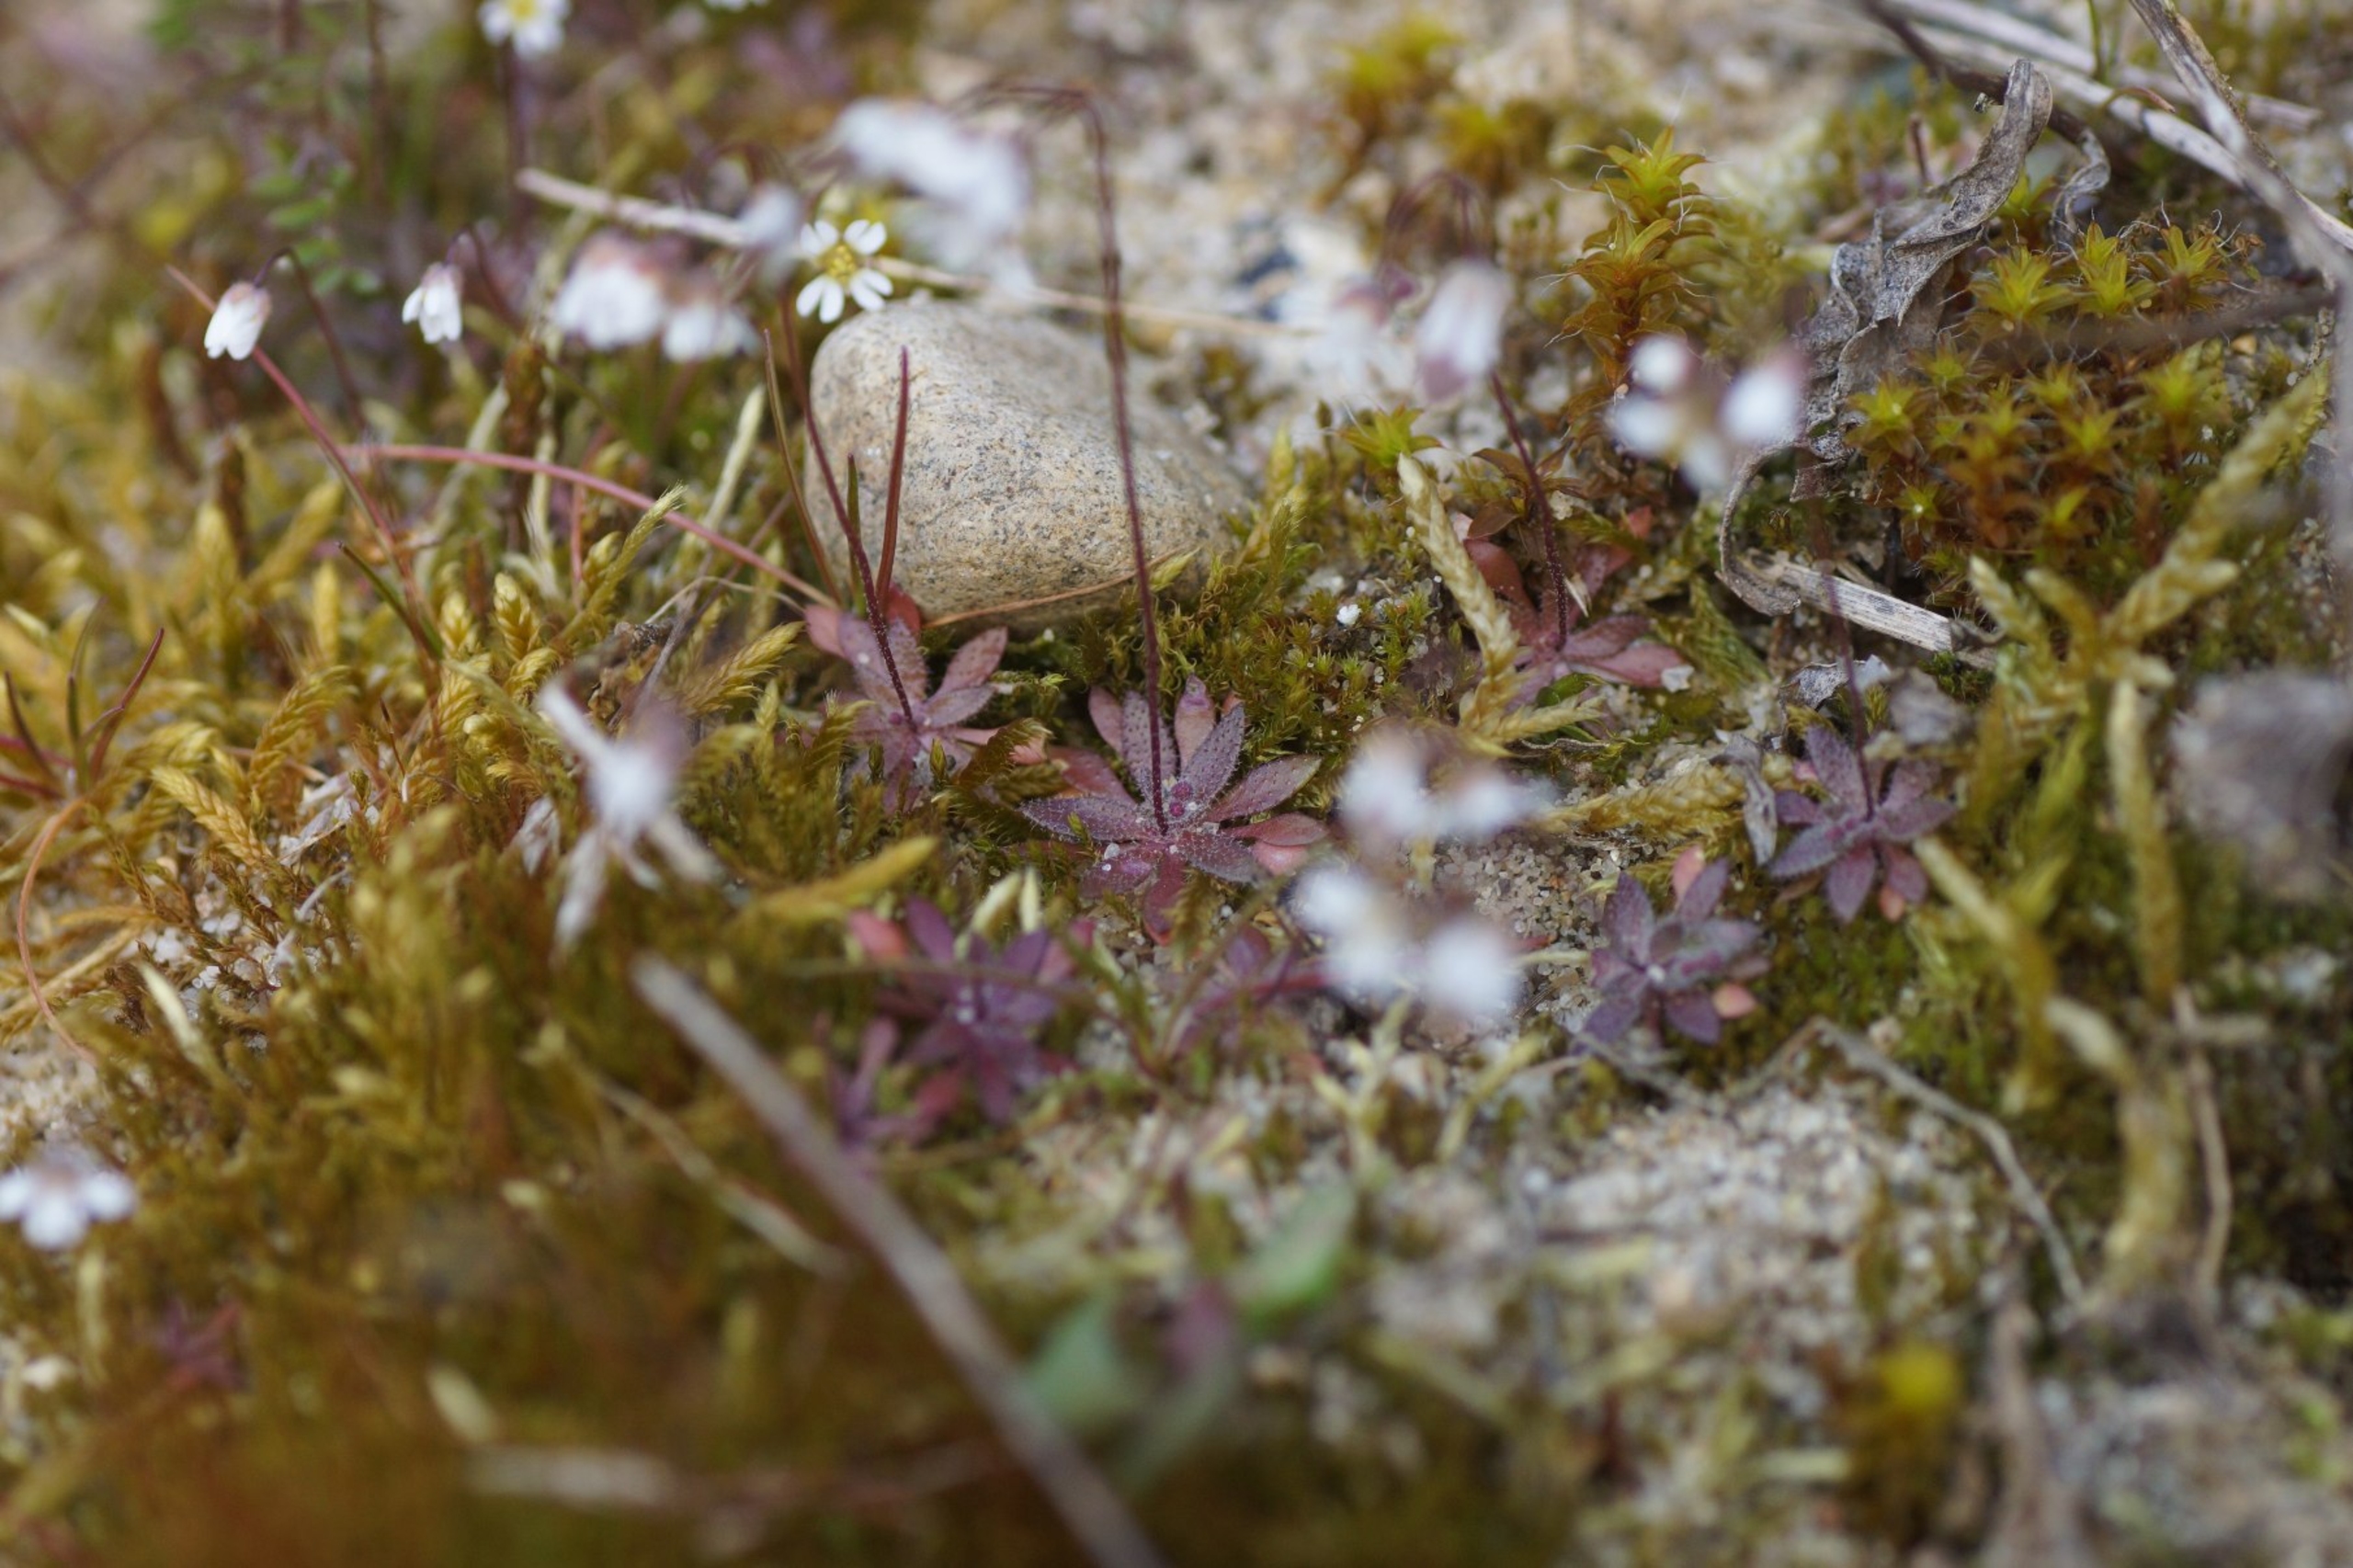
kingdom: Plantae
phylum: Tracheophyta
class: Magnoliopsida
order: Brassicales
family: Brassicaceae
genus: Draba
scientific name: Draba verna
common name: Vår-gæslingeblomst
